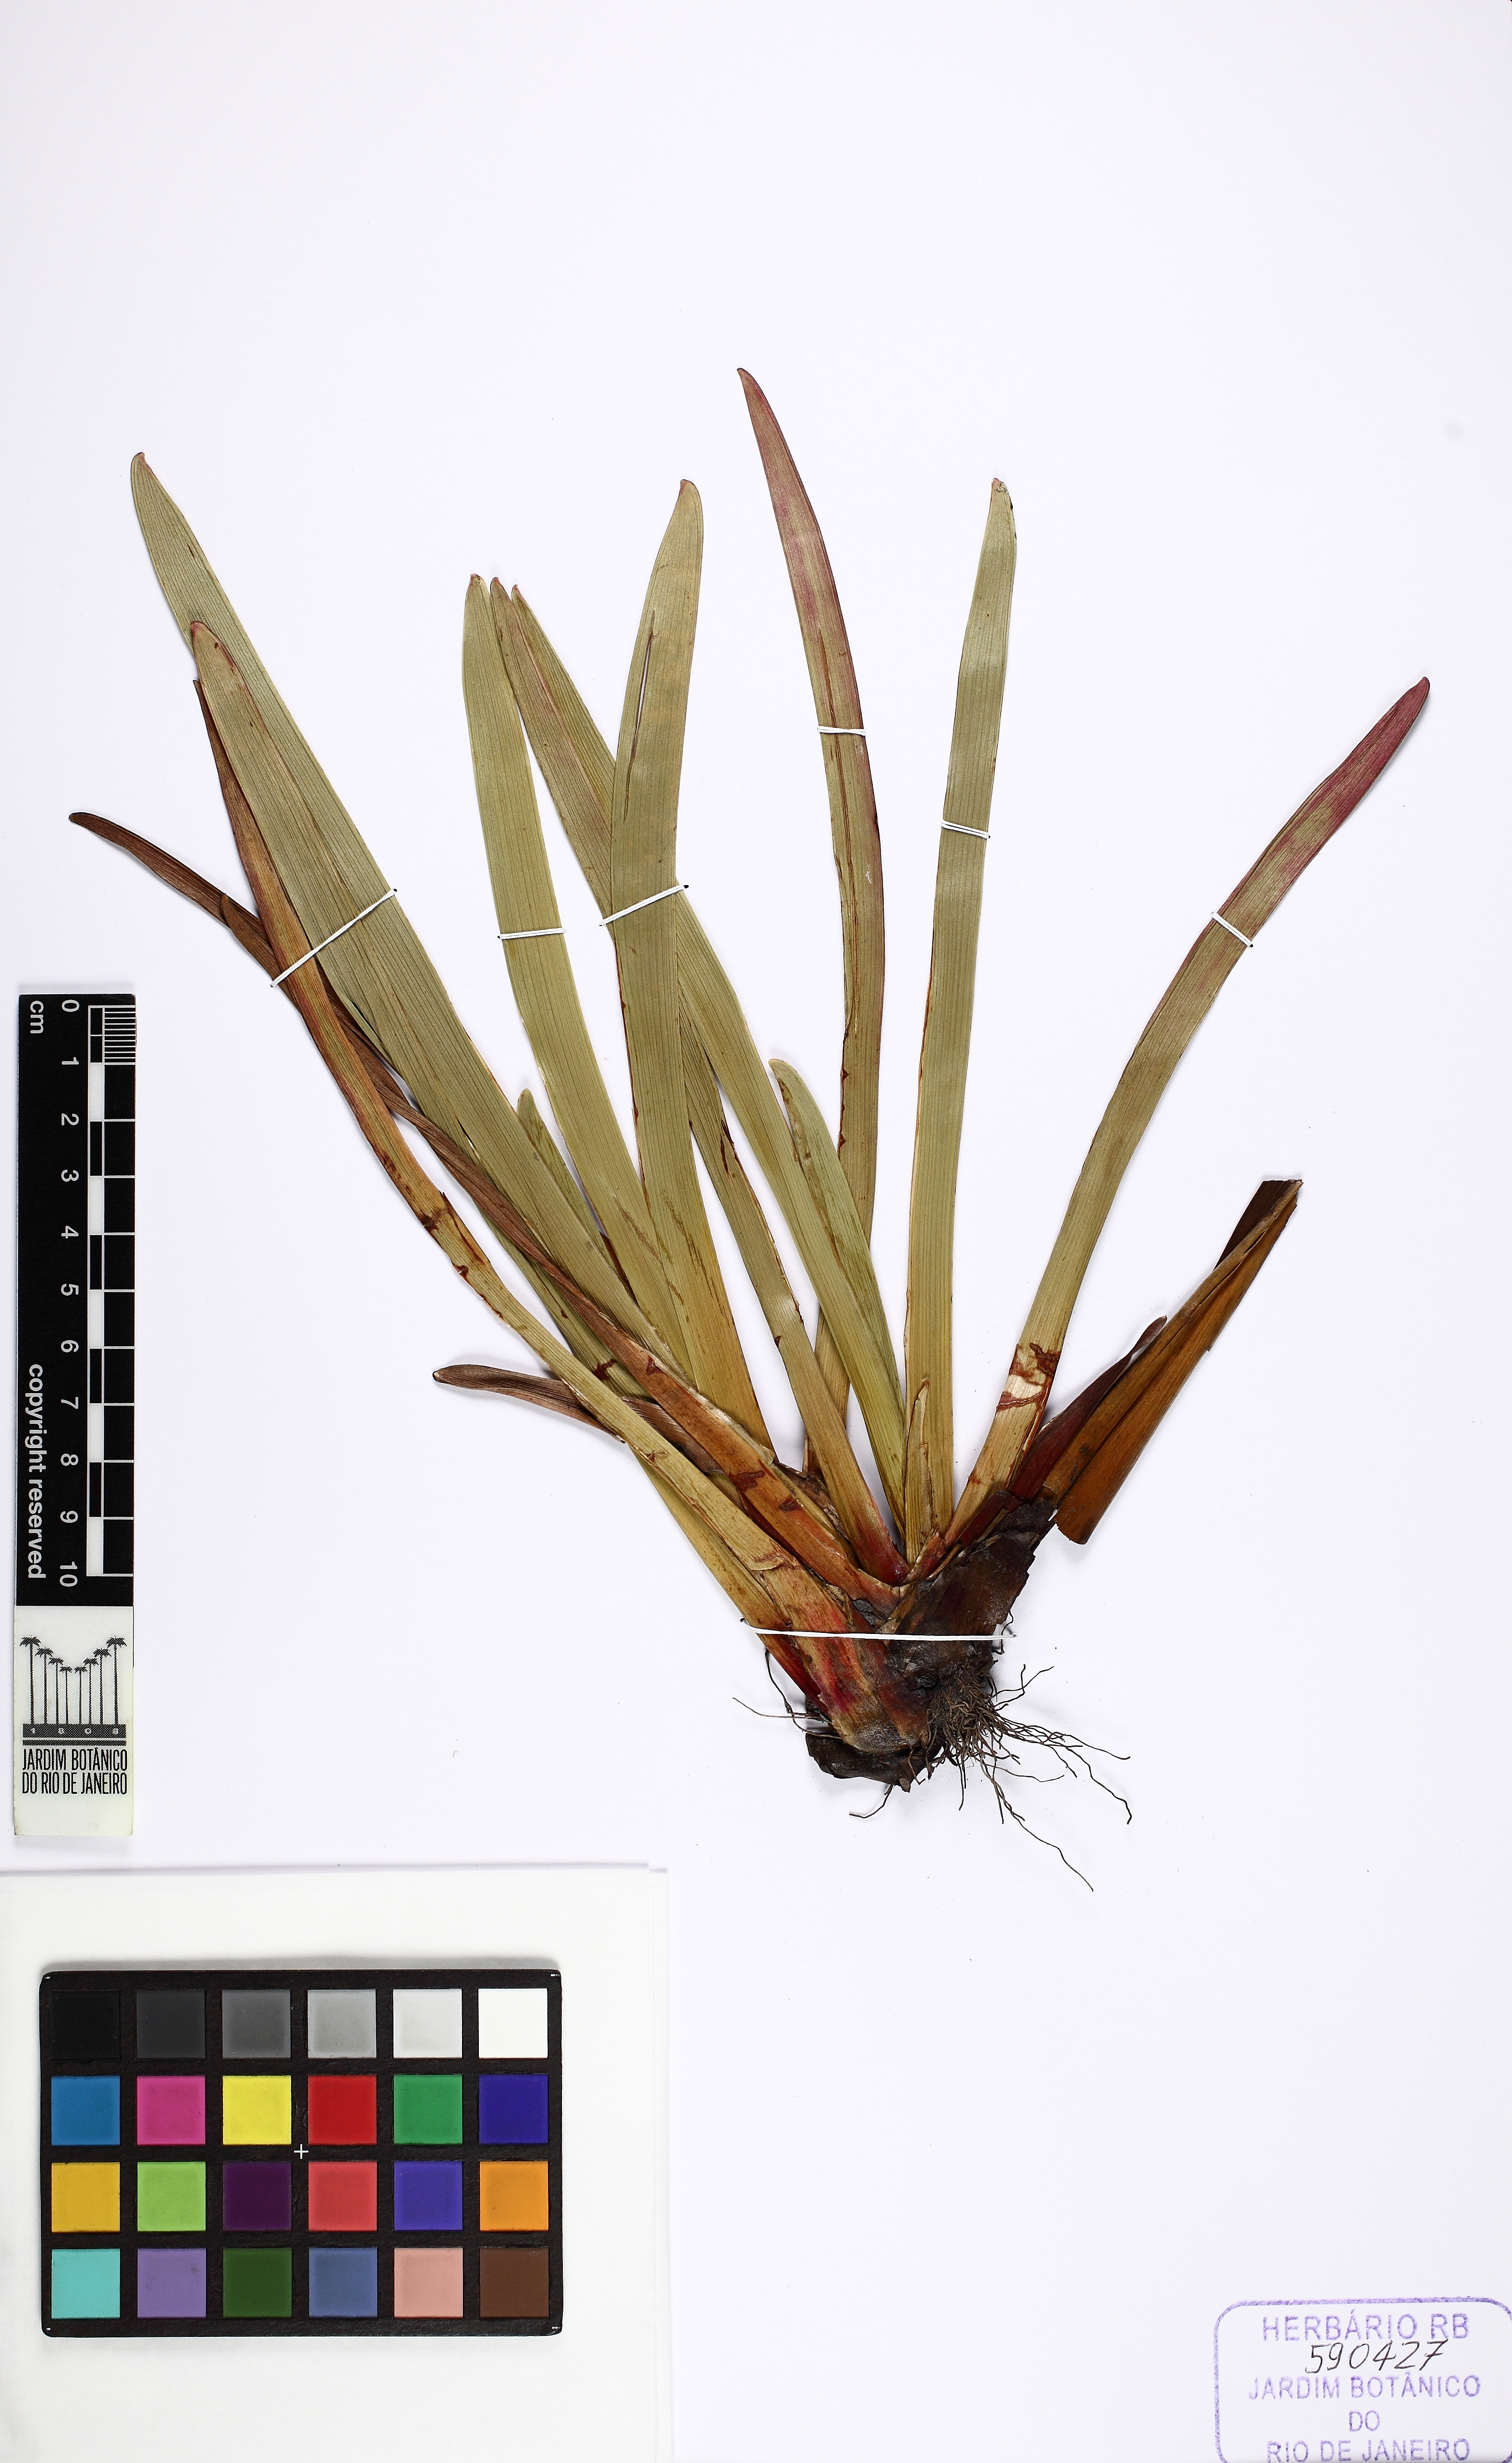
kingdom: Plantae
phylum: Tracheophyta
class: Liliopsida
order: Poales
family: Xyridaceae
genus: Xyris
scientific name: Xyris longiscapa
